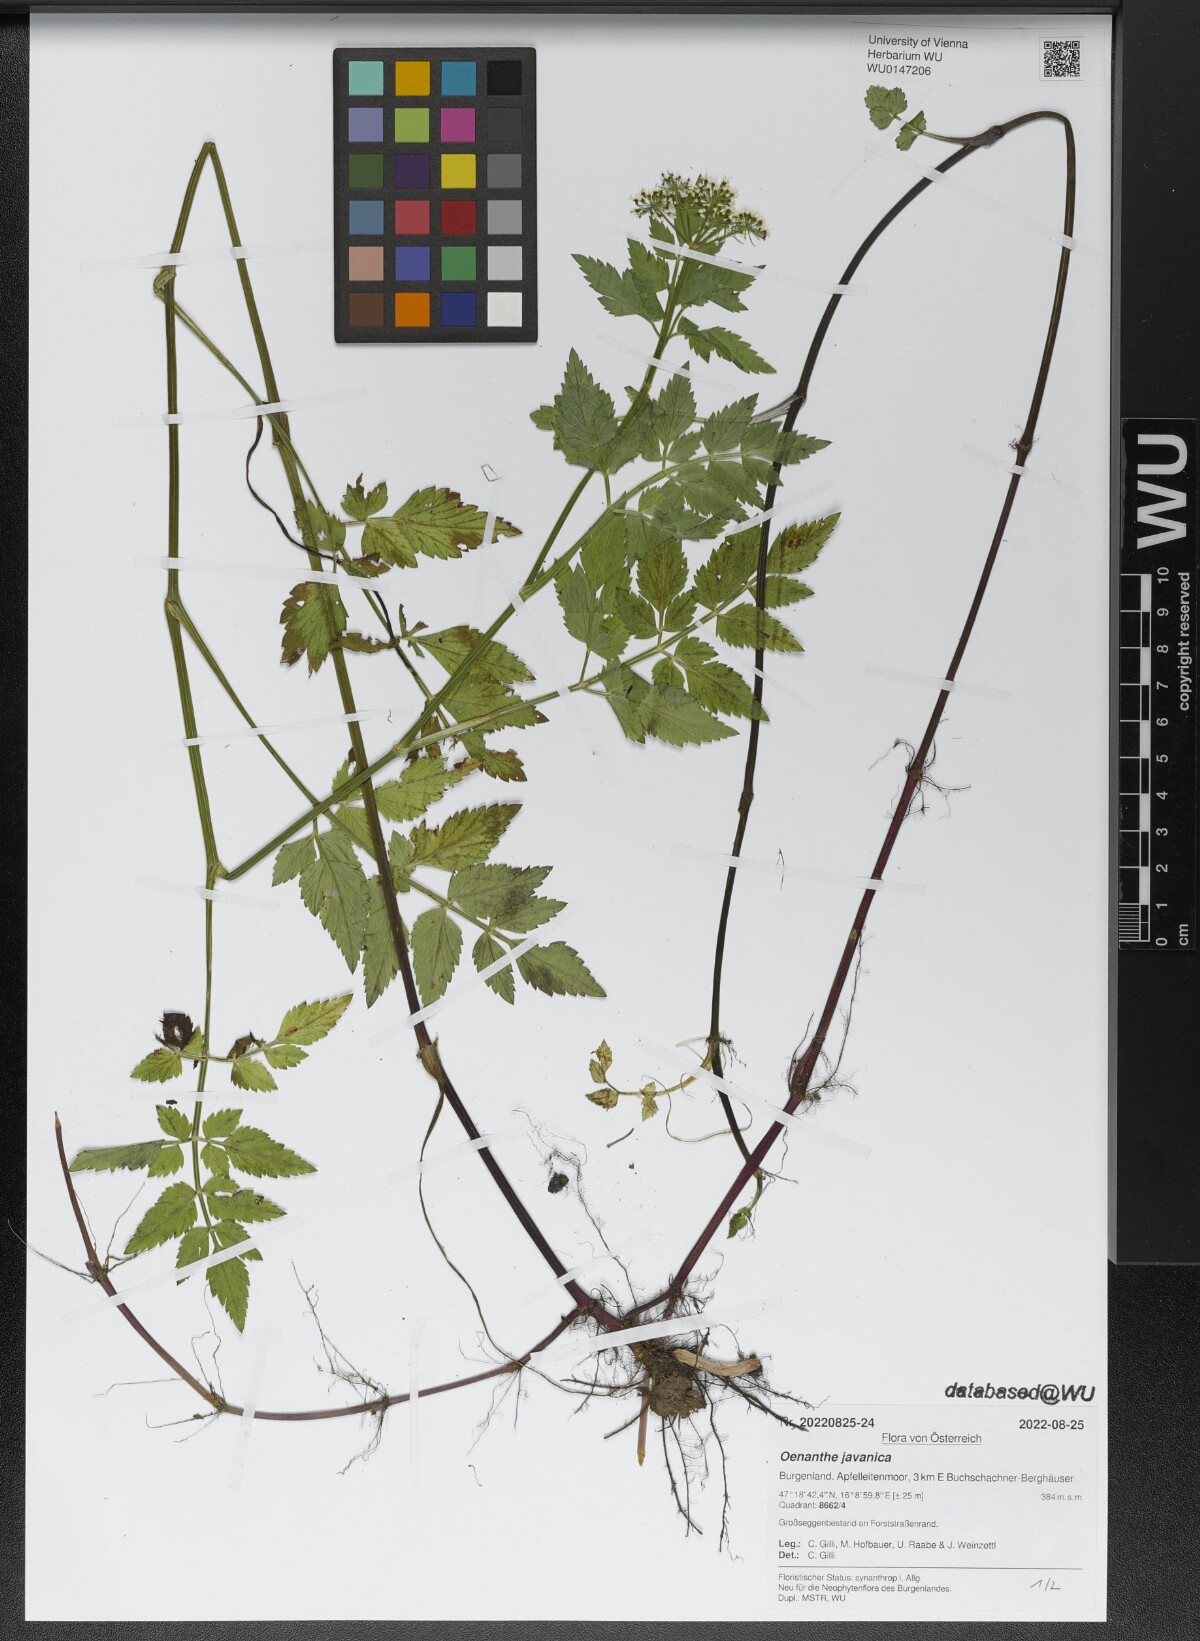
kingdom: Plantae
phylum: Tracheophyta
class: Magnoliopsida
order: Apiales
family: Apiaceae
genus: Oenanthe
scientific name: Oenanthe javanica
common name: Java water-dropwort
